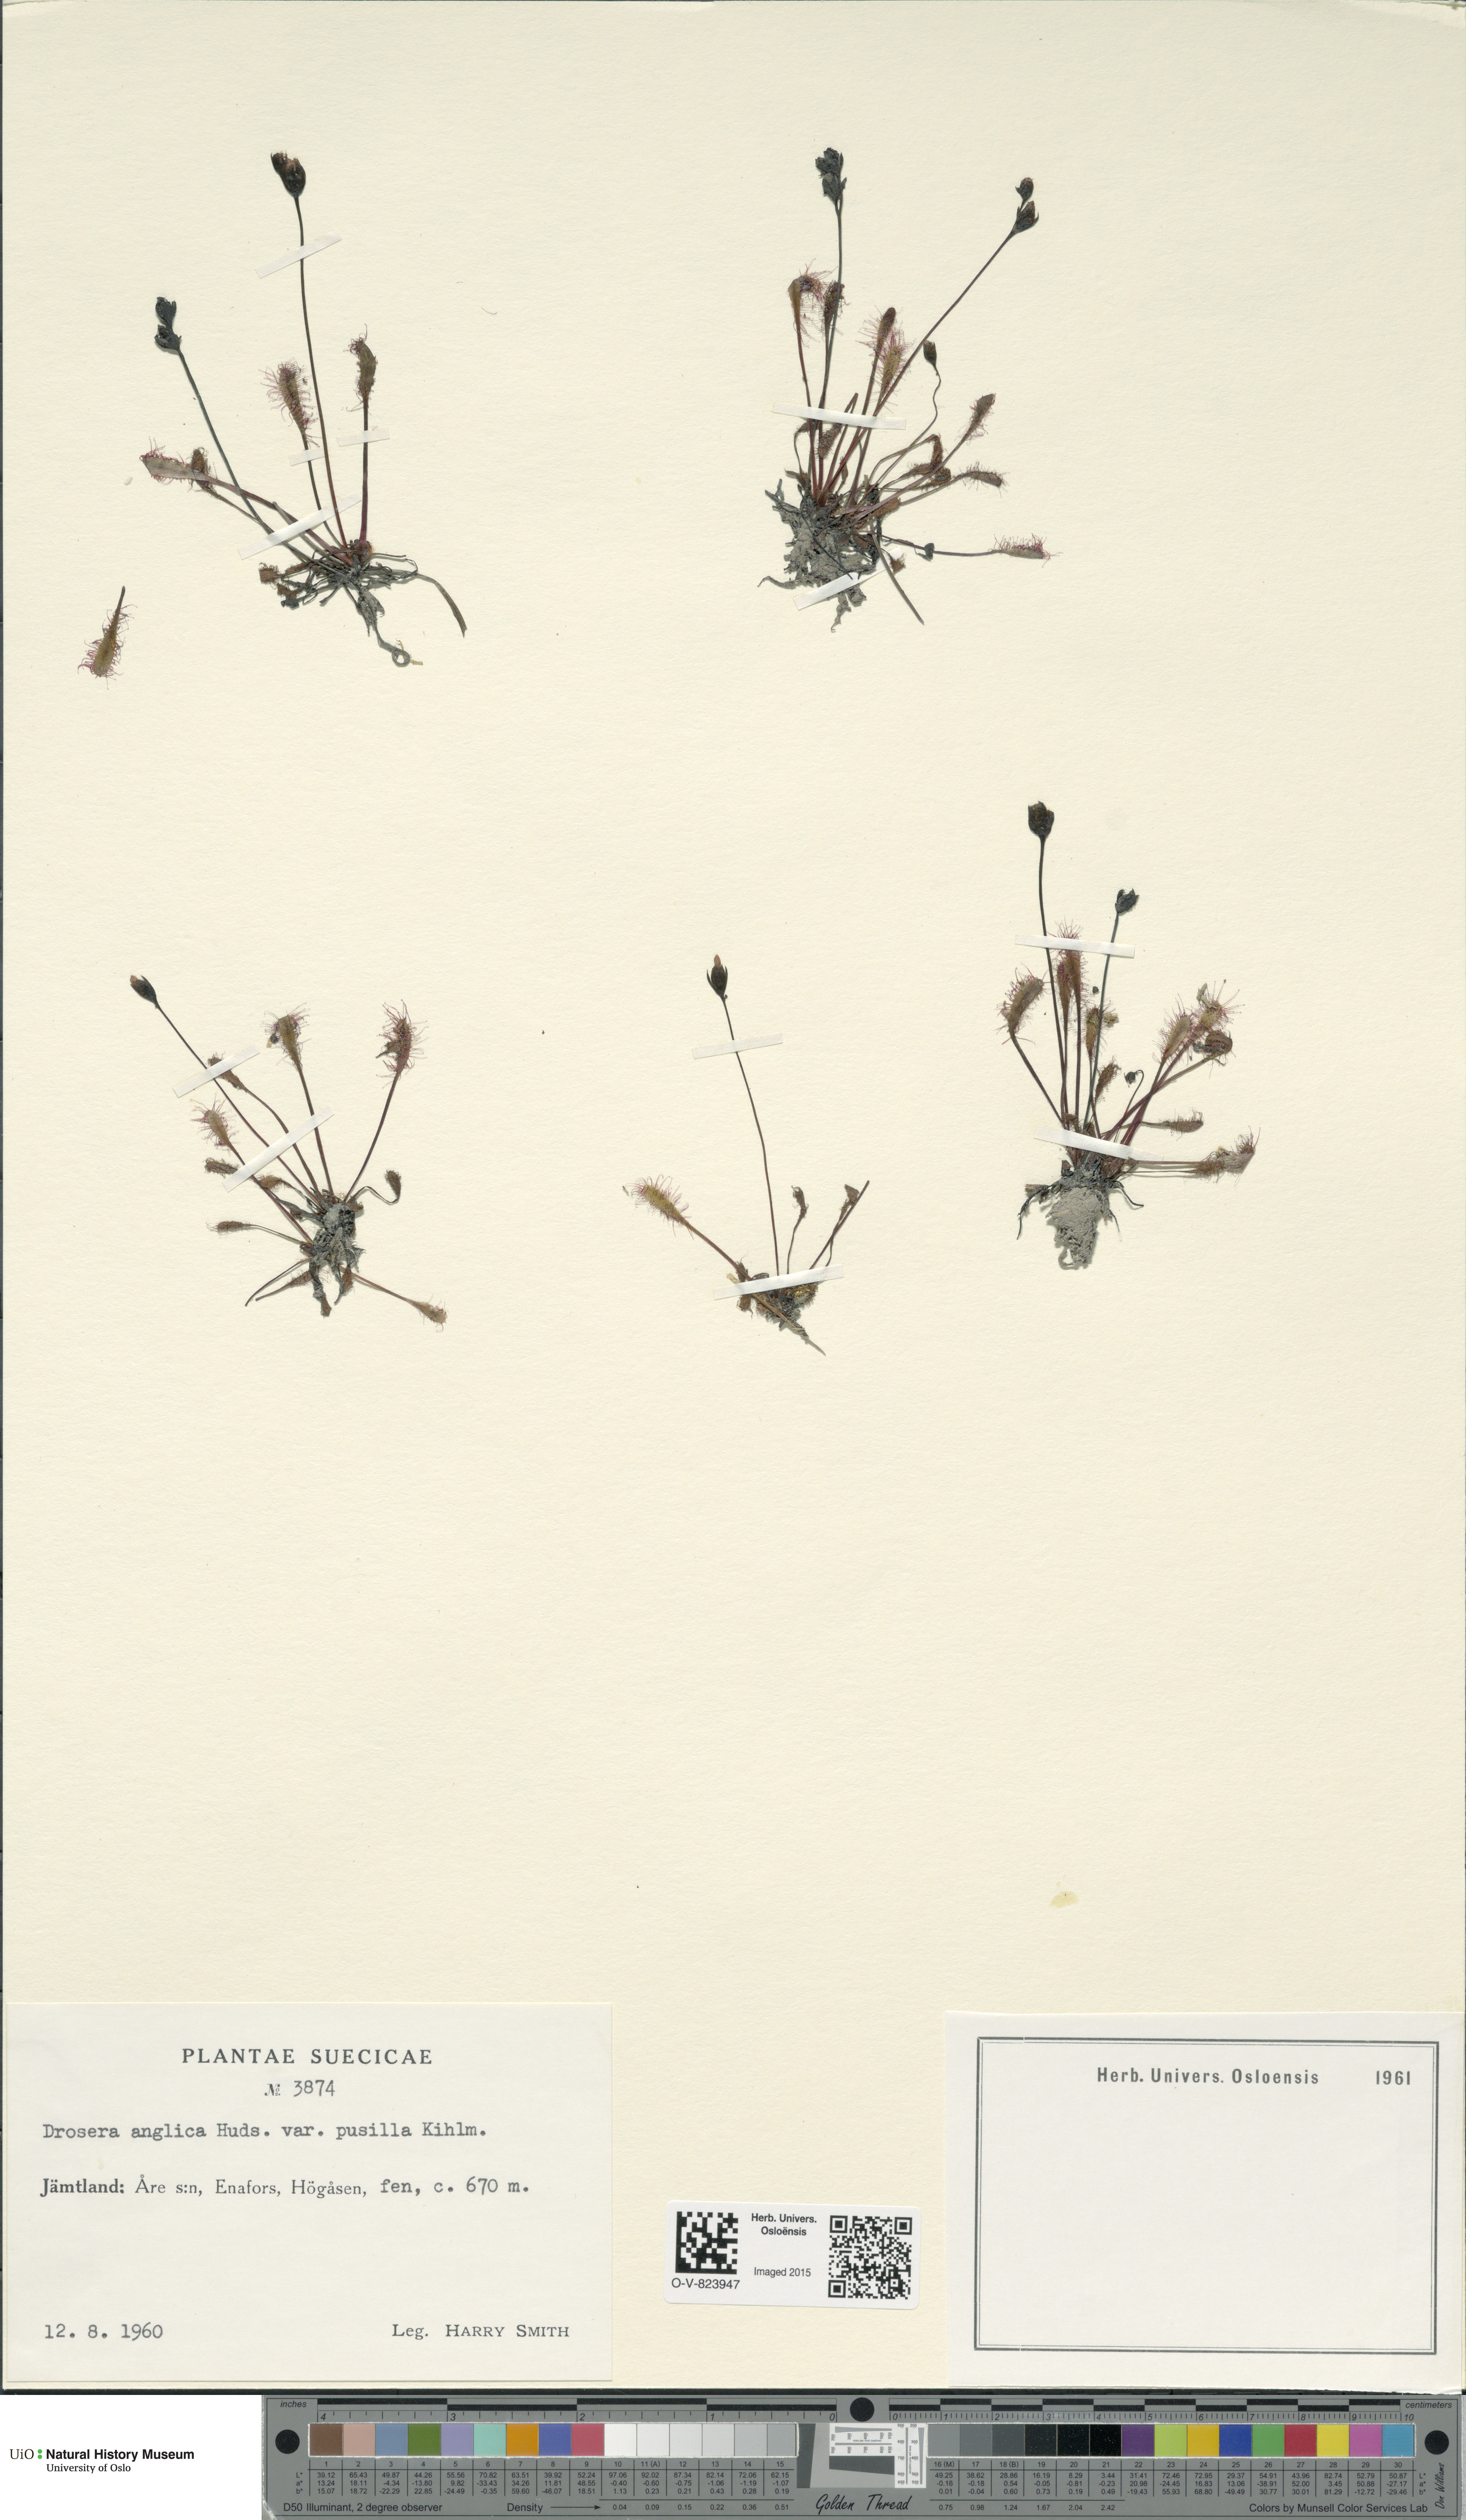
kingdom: Plantae
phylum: Tracheophyta
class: Magnoliopsida
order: Caryophyllales
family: Droseraceae
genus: Drosera
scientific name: Drosera anglica
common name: Great sundew
